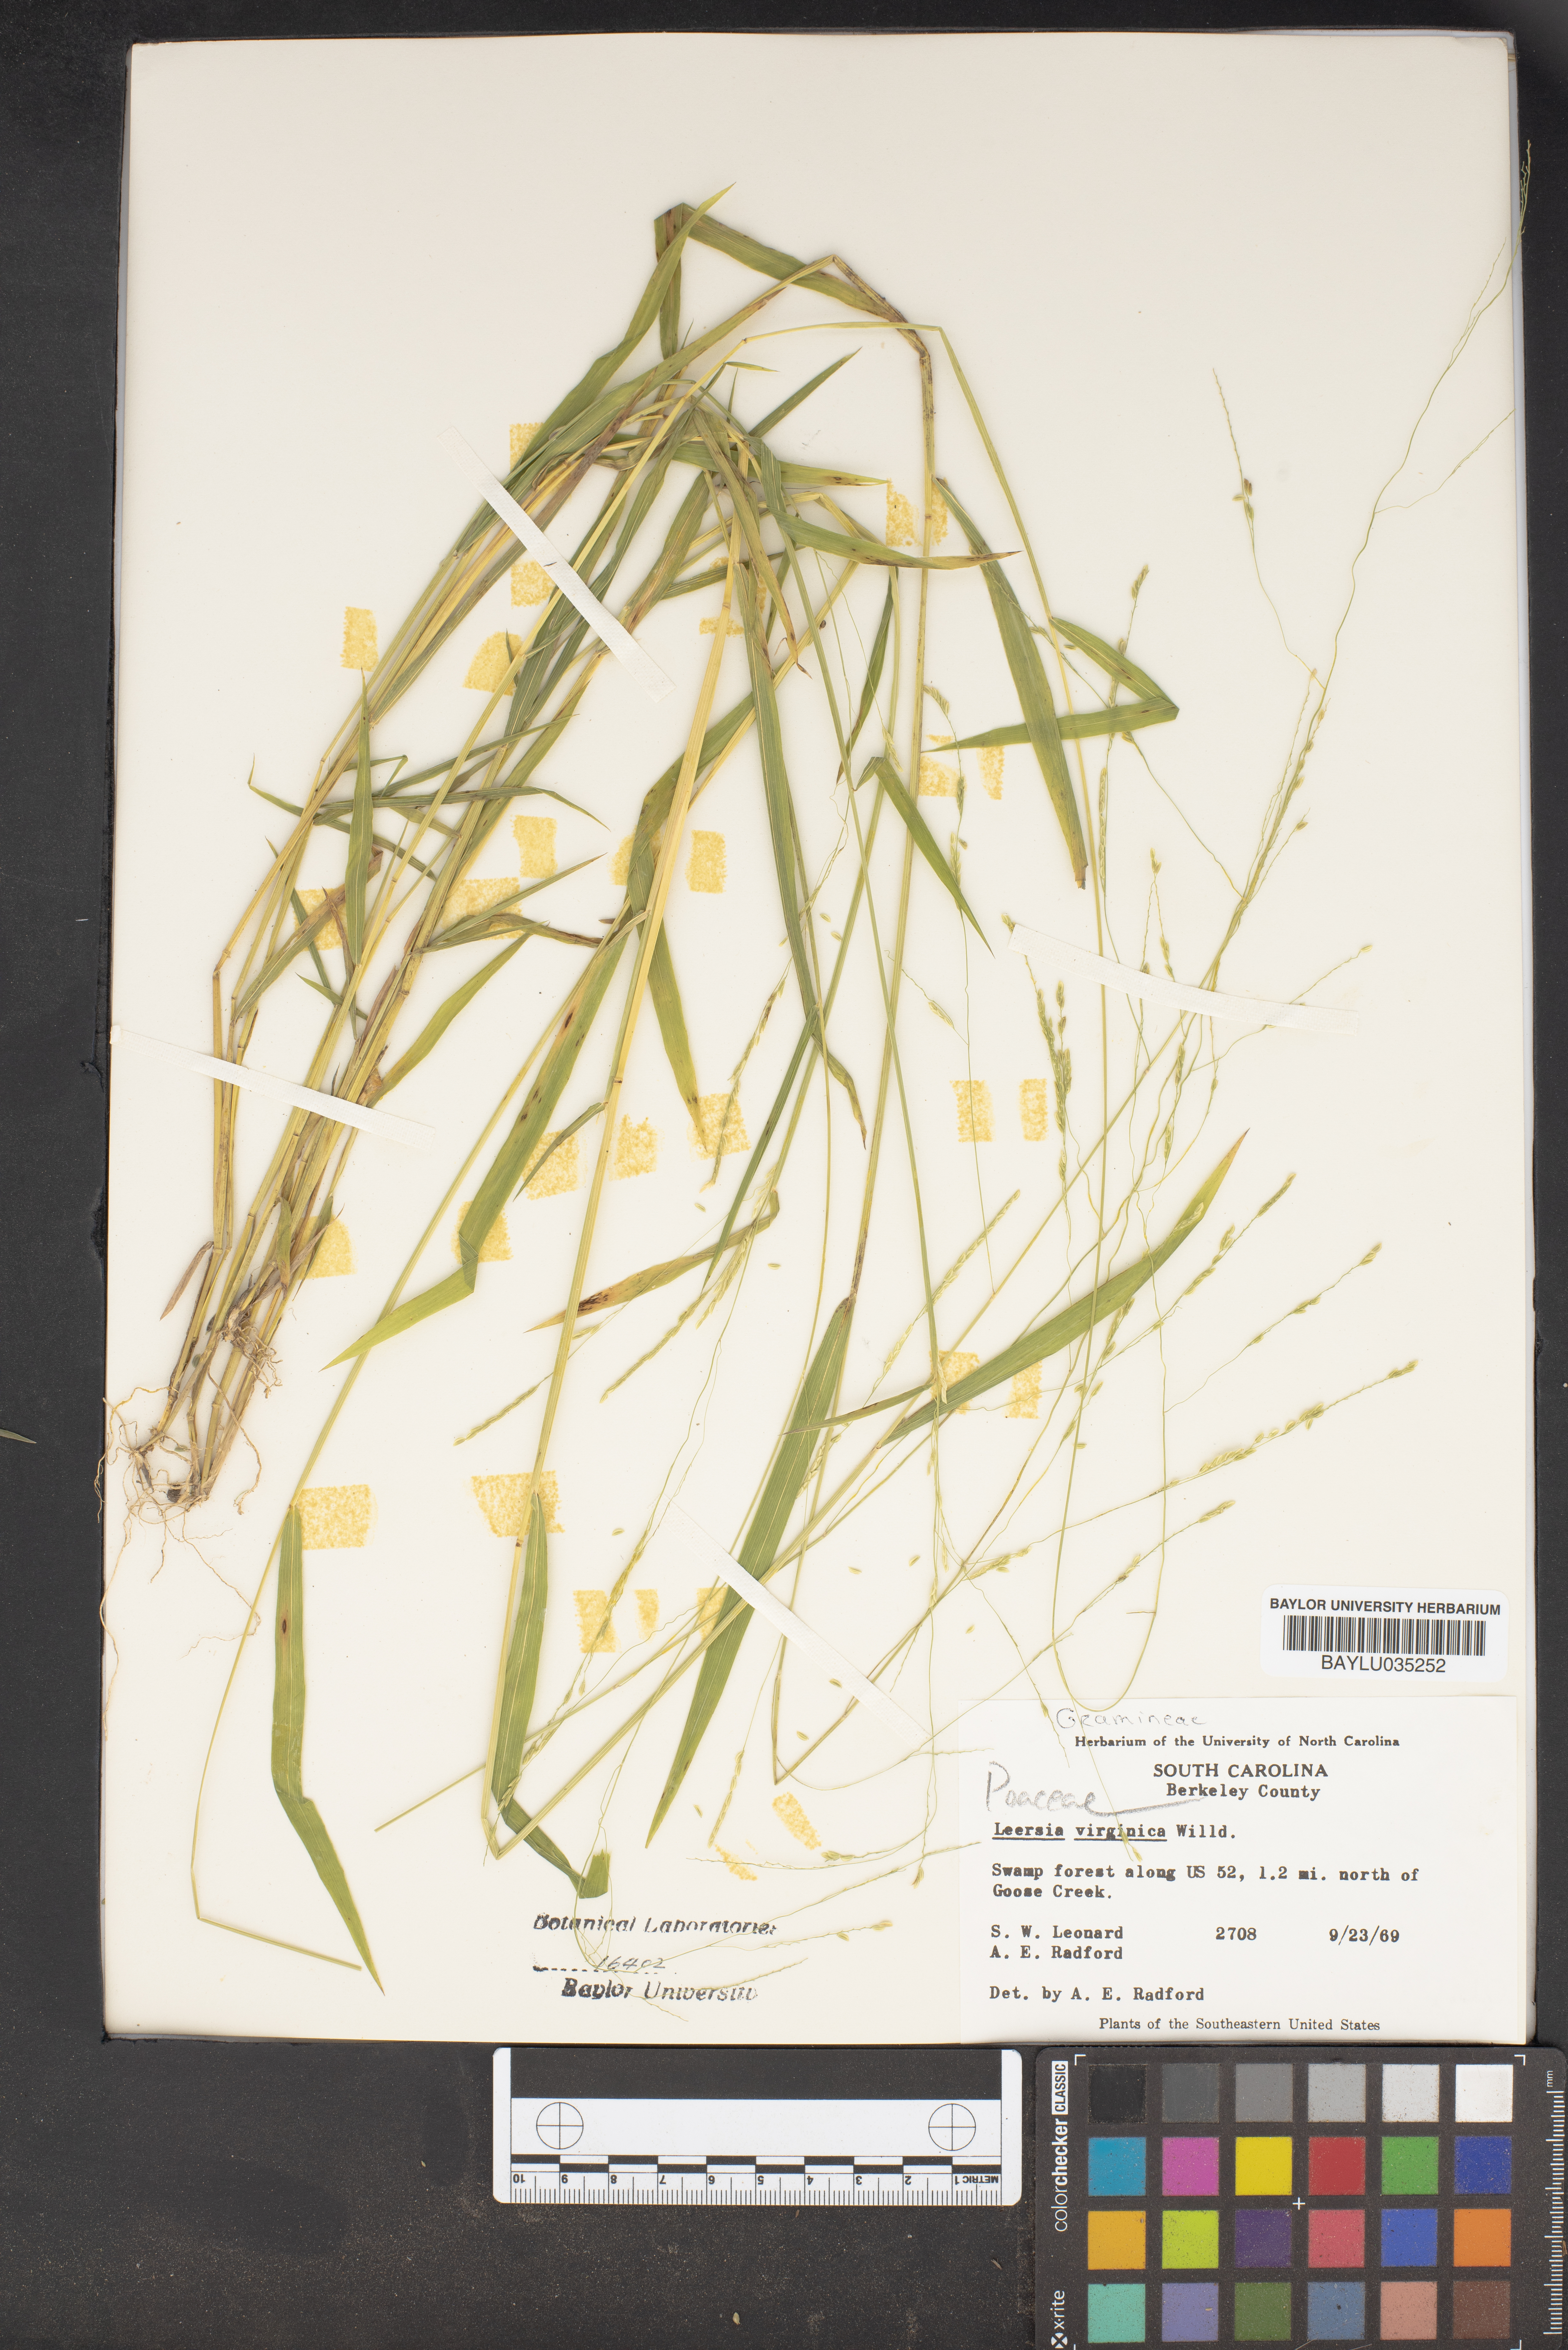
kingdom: Plantae
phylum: Tracheophyta
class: Liliopsida
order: Poales
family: Poaceae
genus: Leersia
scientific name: Leersia virginica
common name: White cutgrass
